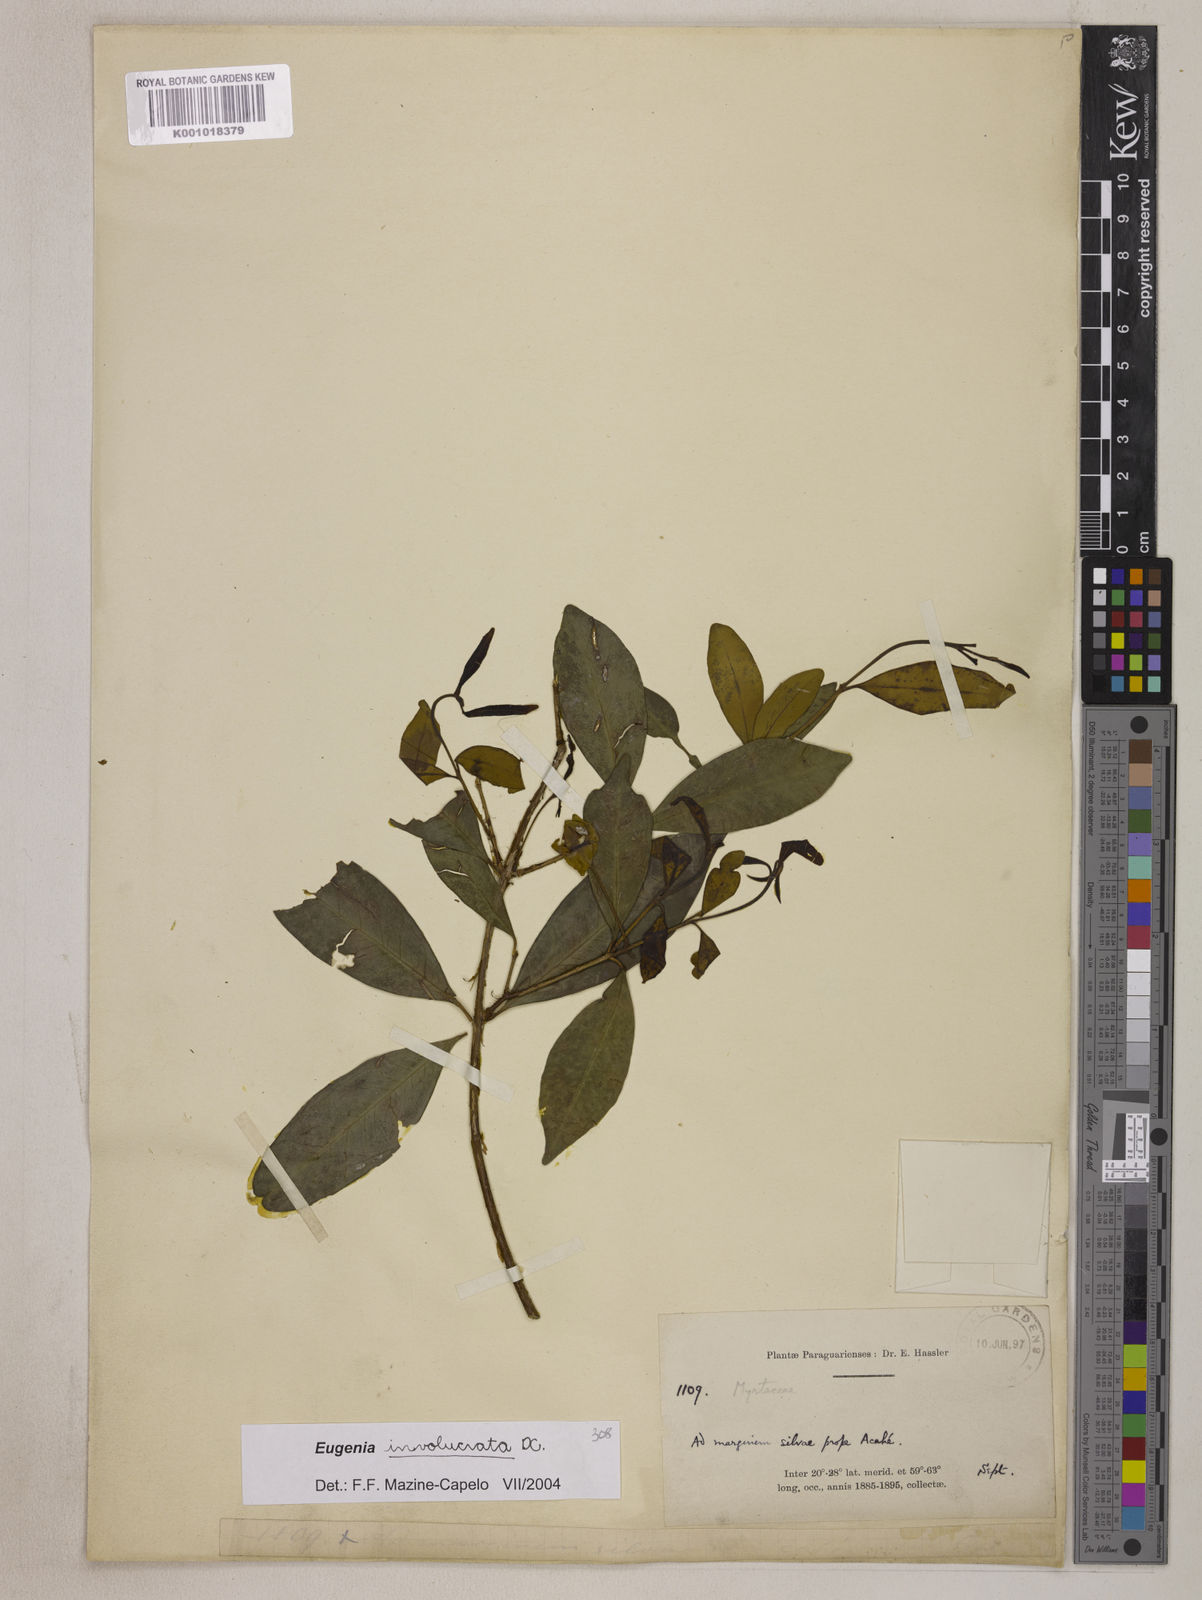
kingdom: Plantae
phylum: Tracheophyta
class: Magnoliopsida
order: Myrtales
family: Myrtaceae
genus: Eugenia
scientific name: Eugenia involucrata
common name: Cherry-of-the-rio grande
